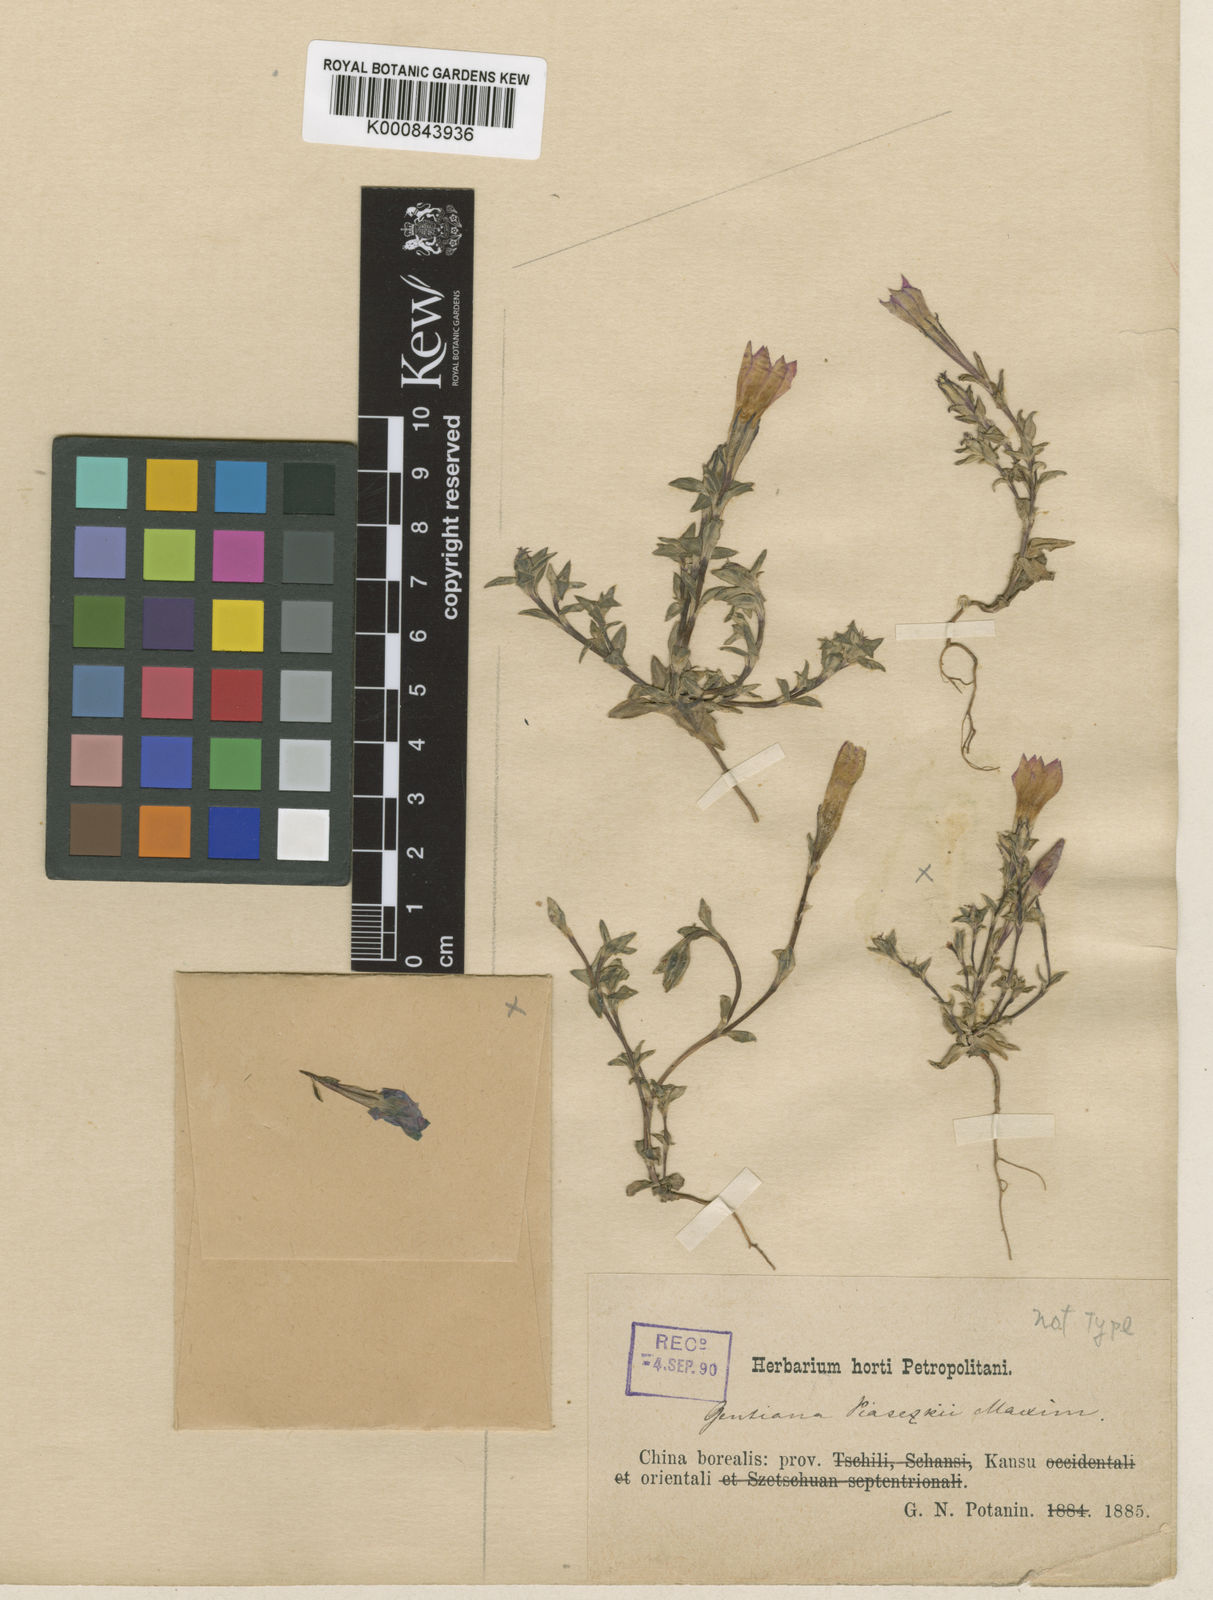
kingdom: Plantae
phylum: Tracheophyta
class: Magnoliopsida
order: Gentianales
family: Gentianaceae
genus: Gentiana
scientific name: Gentiana piasezkii
